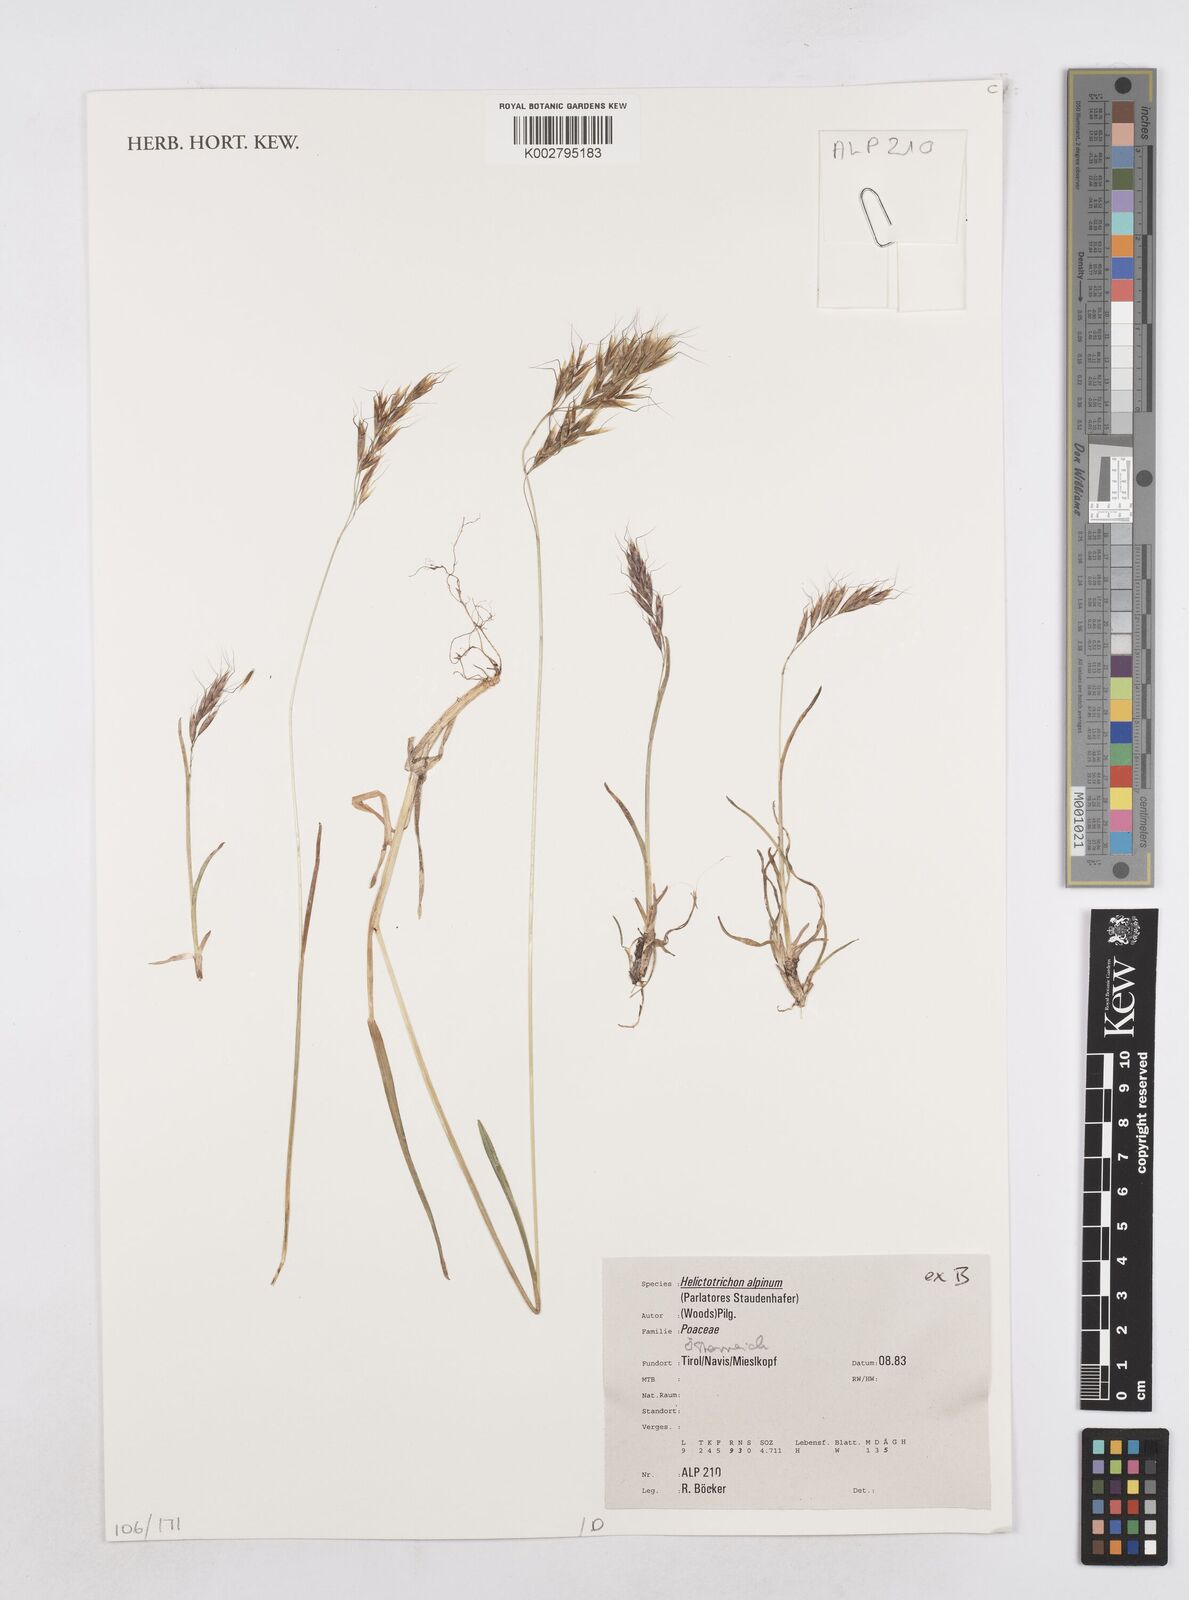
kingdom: Plantae
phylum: Tracheophyta
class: Liliopsida
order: Poales
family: Poaceae
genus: Helictochloa
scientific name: Helictochloa pratensis
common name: Meadow oat grass
